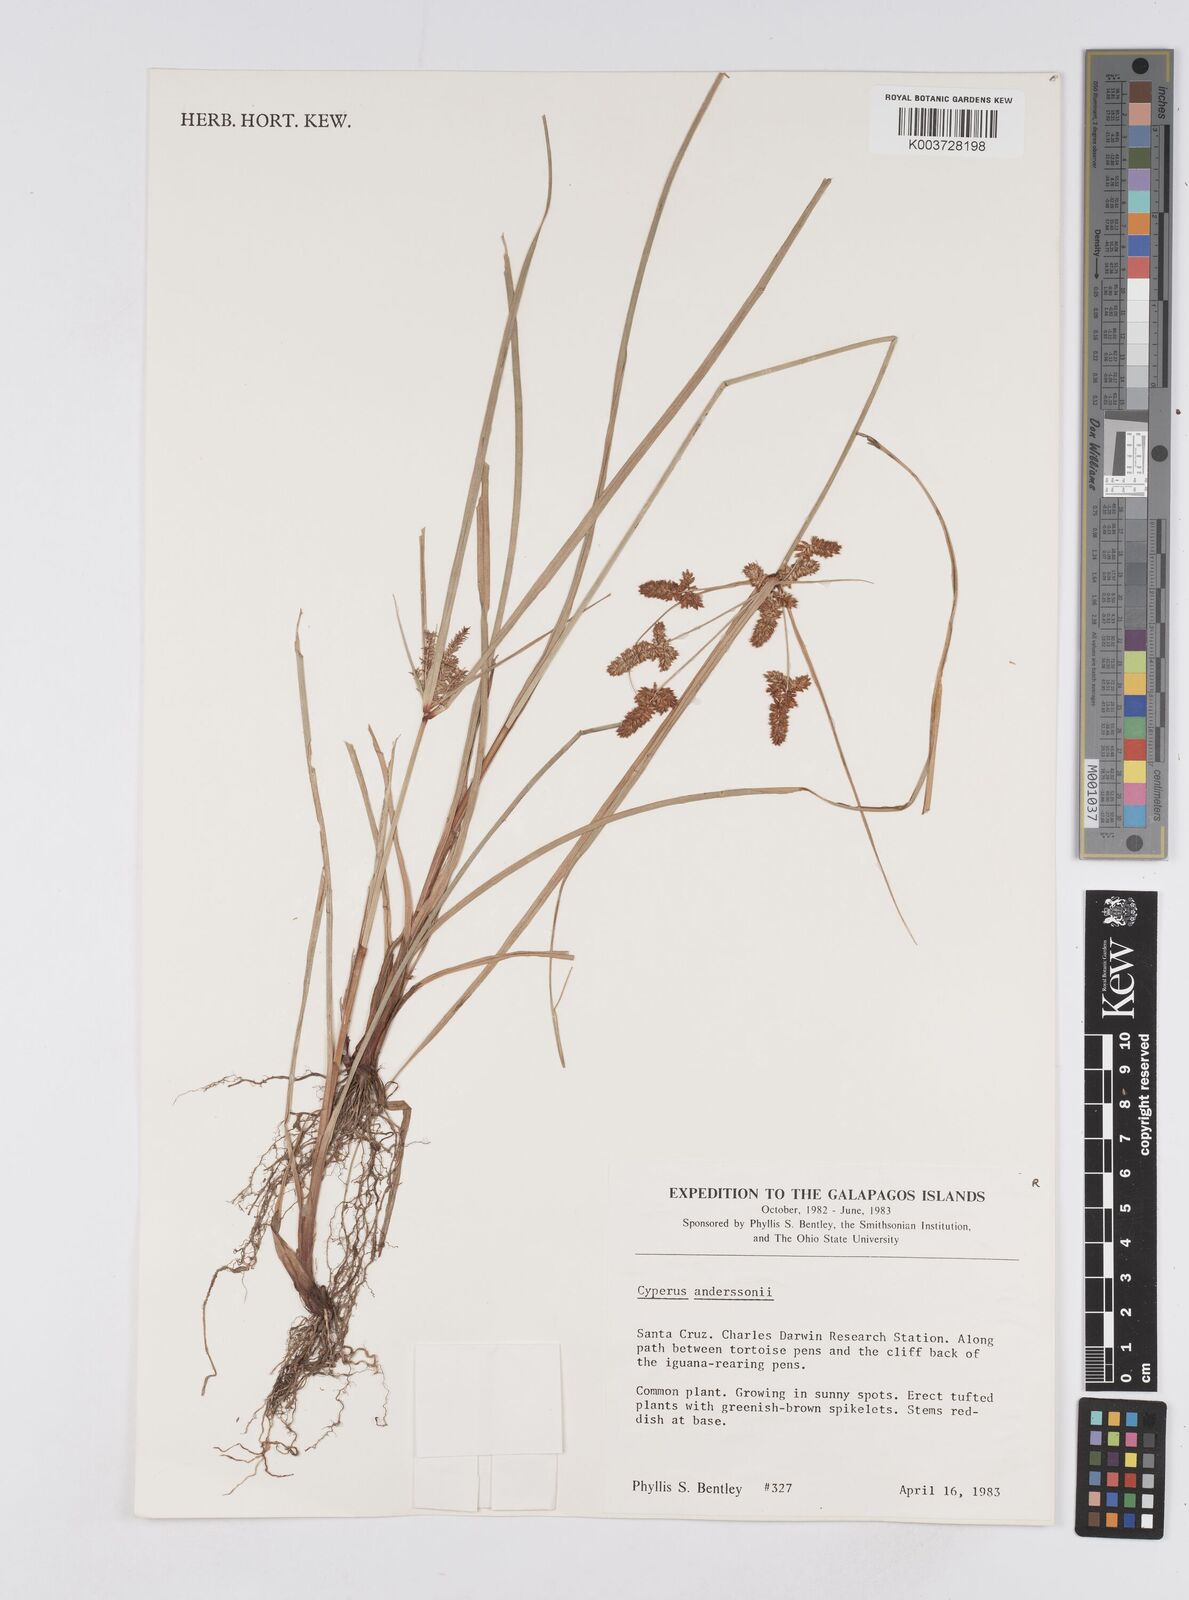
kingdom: Plantae
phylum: Tracheophyta
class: Liliopsida
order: Poales
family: Cyperaceae
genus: Cyperus
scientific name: Cyperus anderssonii
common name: Andersson's sedge
